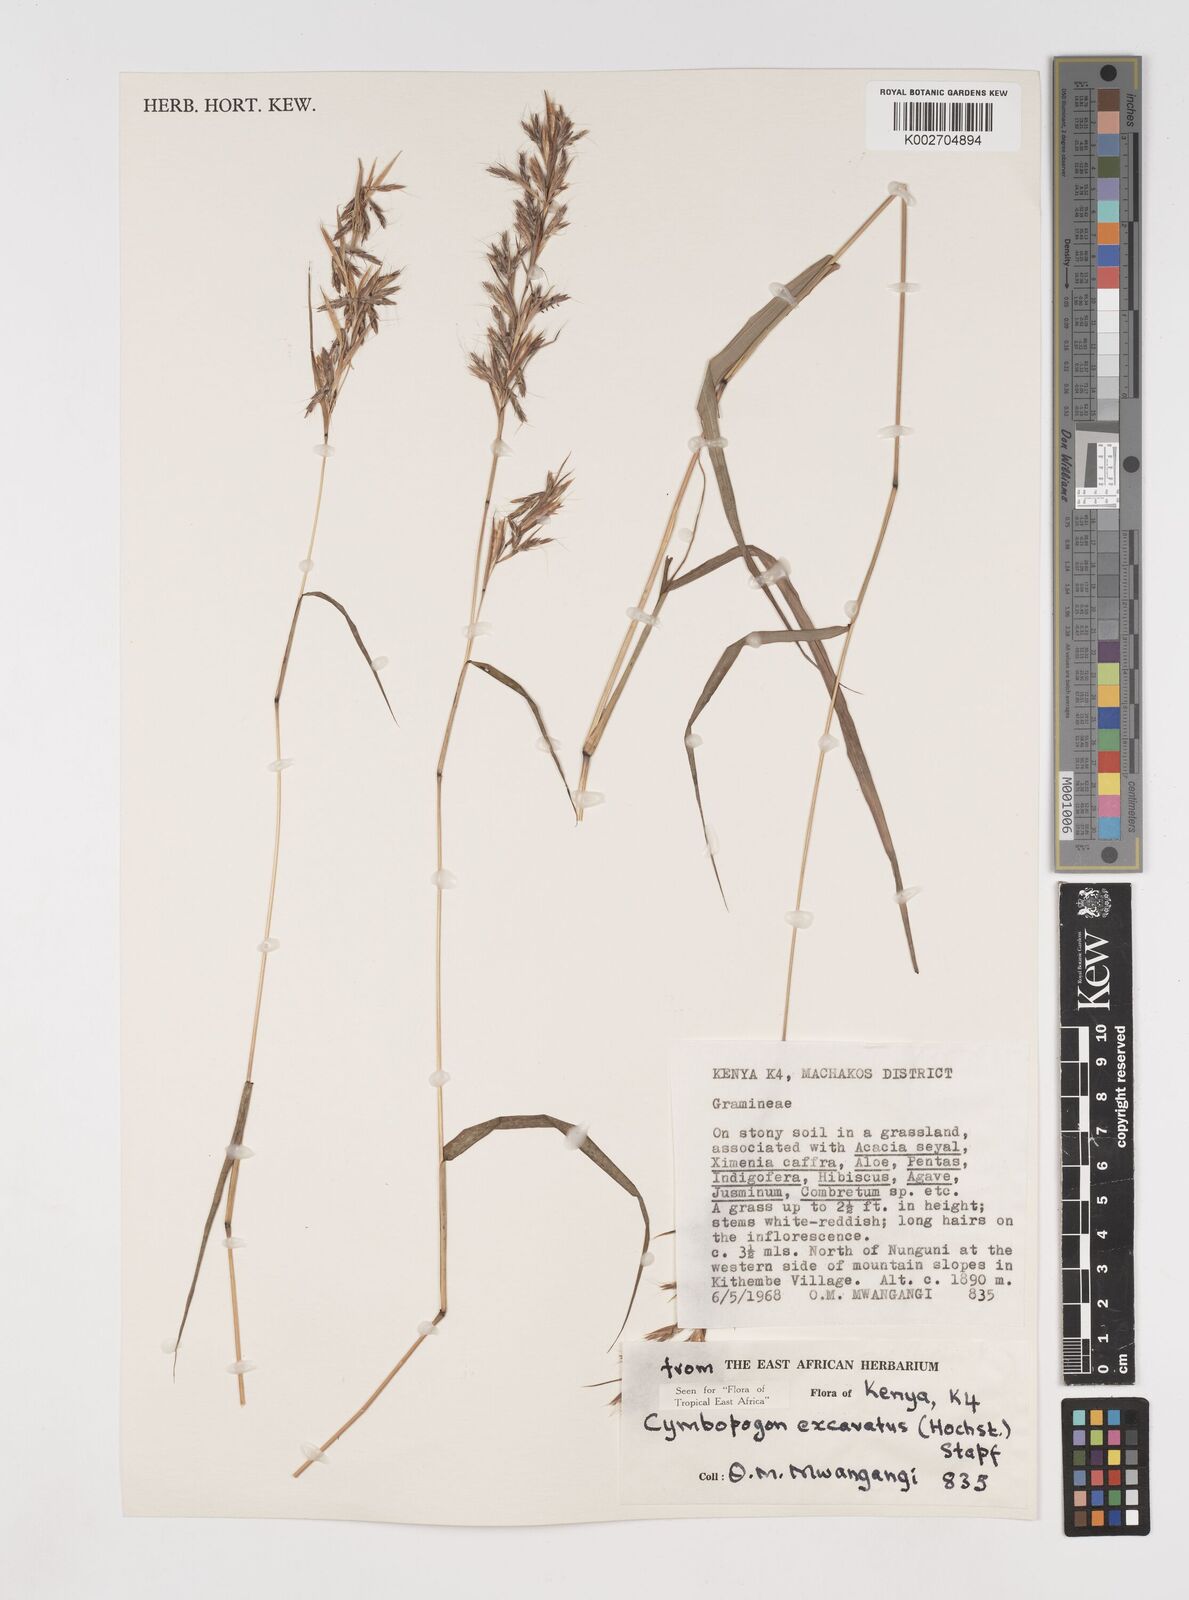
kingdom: Plantae
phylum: Tracheophyta
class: Liliopsida
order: Poales
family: Poaceae
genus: Cymbopogon
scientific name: Cymbopogon caesius
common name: Kachi grass
